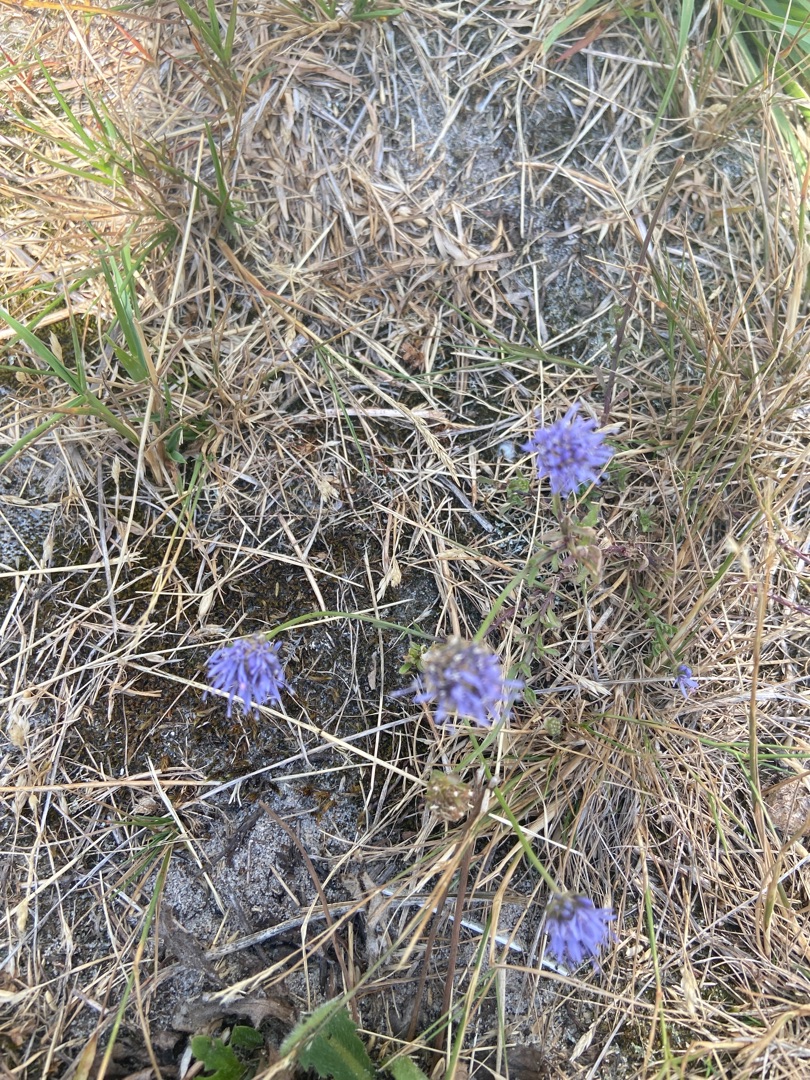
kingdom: Plantae
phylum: Tracheophyta
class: Magnoliopsida
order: Asterales
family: Campanulaceae
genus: Jasione
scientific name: Jasione montana
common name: Blåmunke
